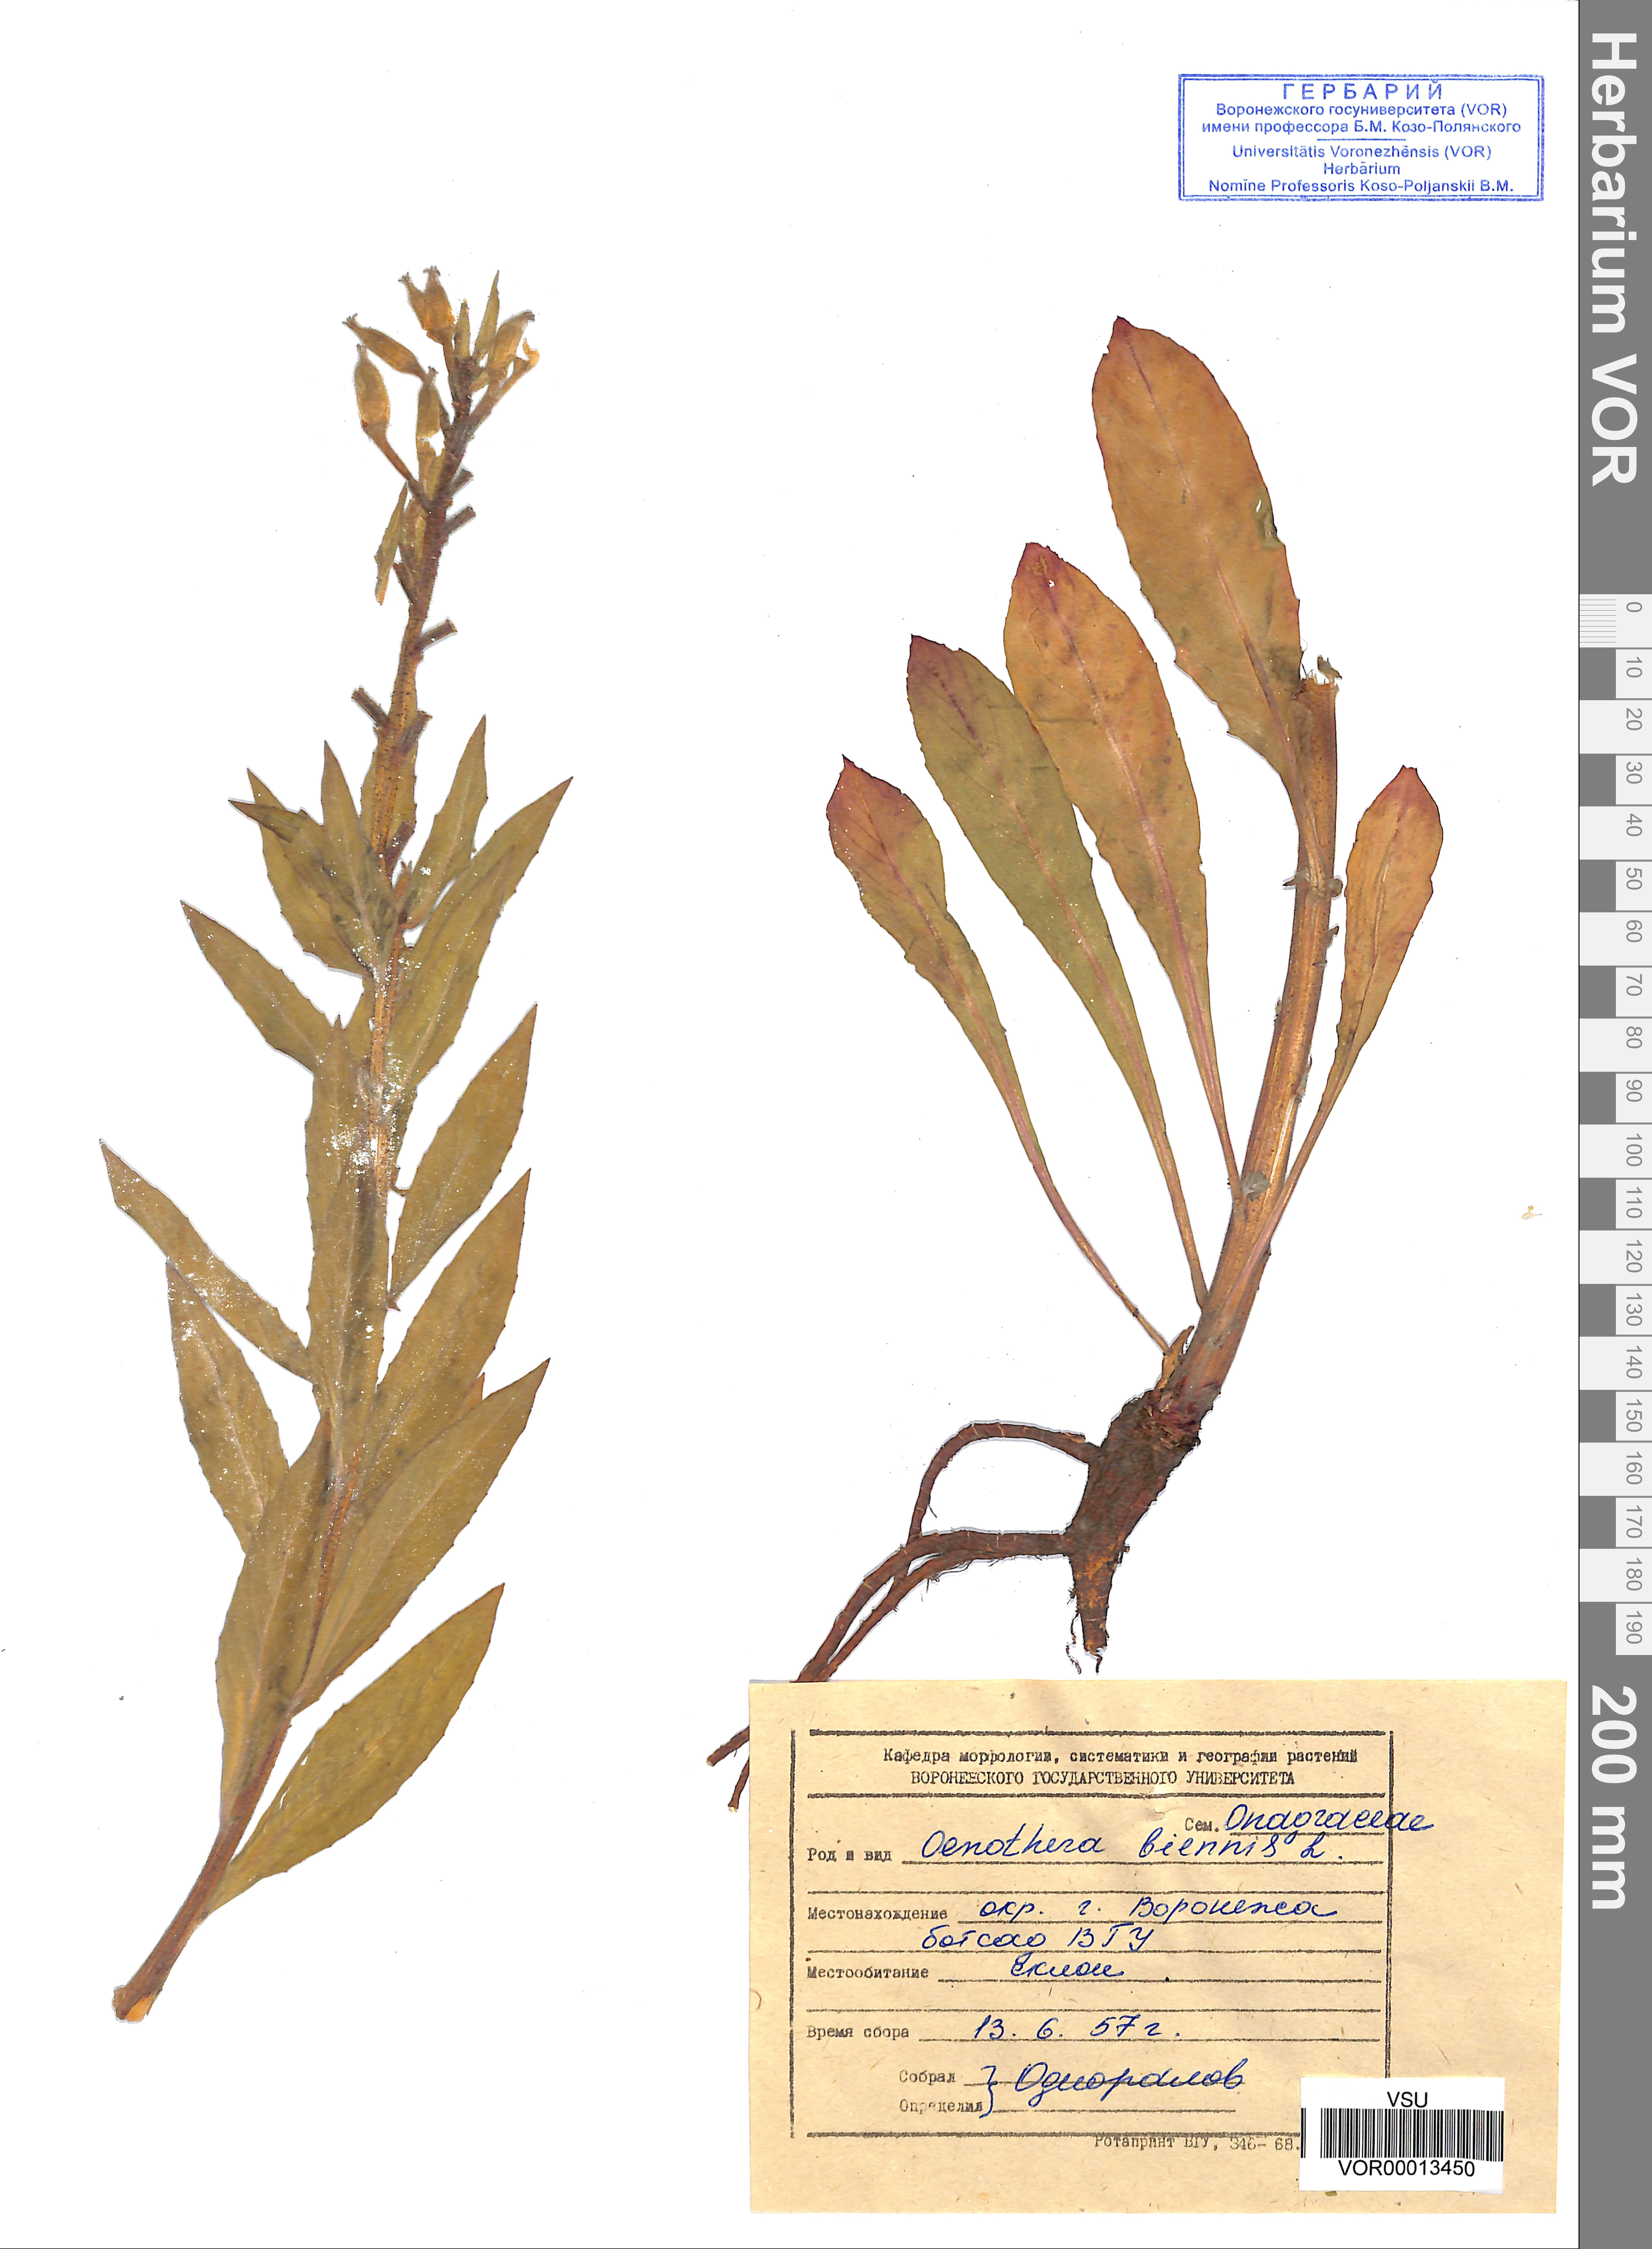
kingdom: Plantae
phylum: Tracheophyta
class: Magnoliopsida
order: Myrtales
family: Onagraceae
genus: Oenothera
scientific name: Oenothera biennis
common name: Common evening-primrose
